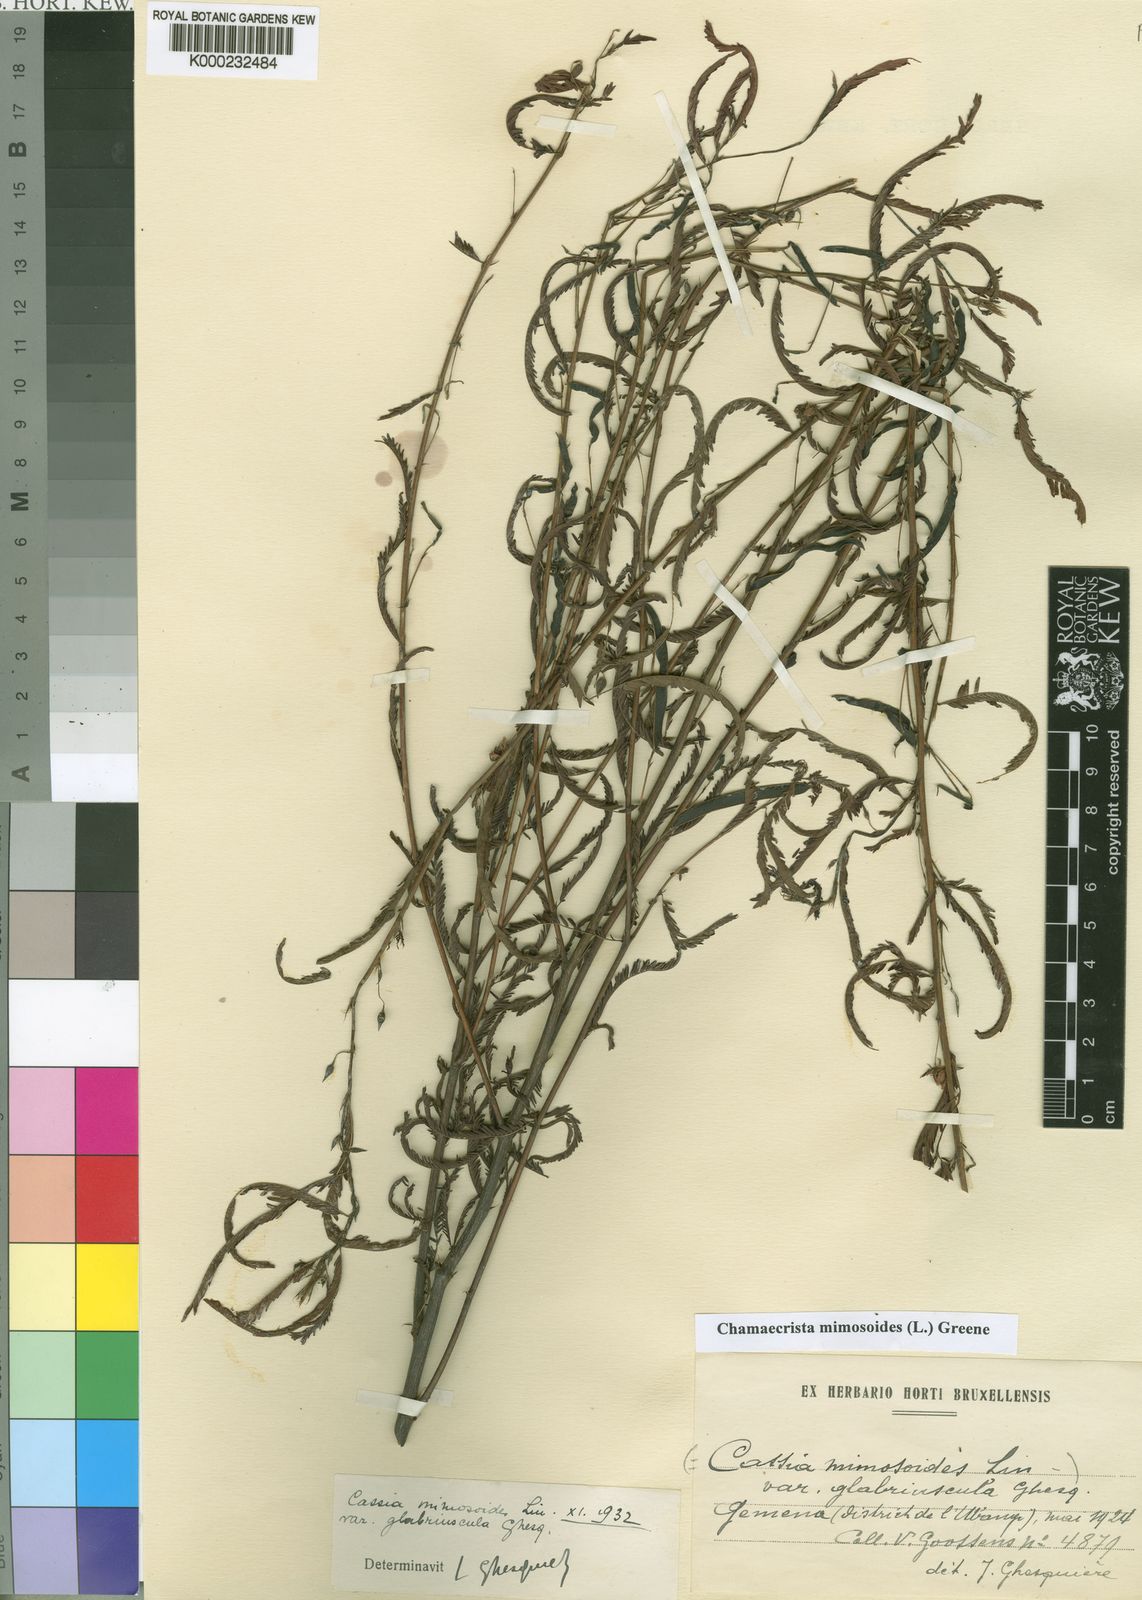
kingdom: Plantae
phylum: Tracheophyta
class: Magnoliopsida
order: Fabales
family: Fabaceae
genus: Chamaecrista
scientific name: Chamaecrista mimosoides
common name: Fish-bone cassia
